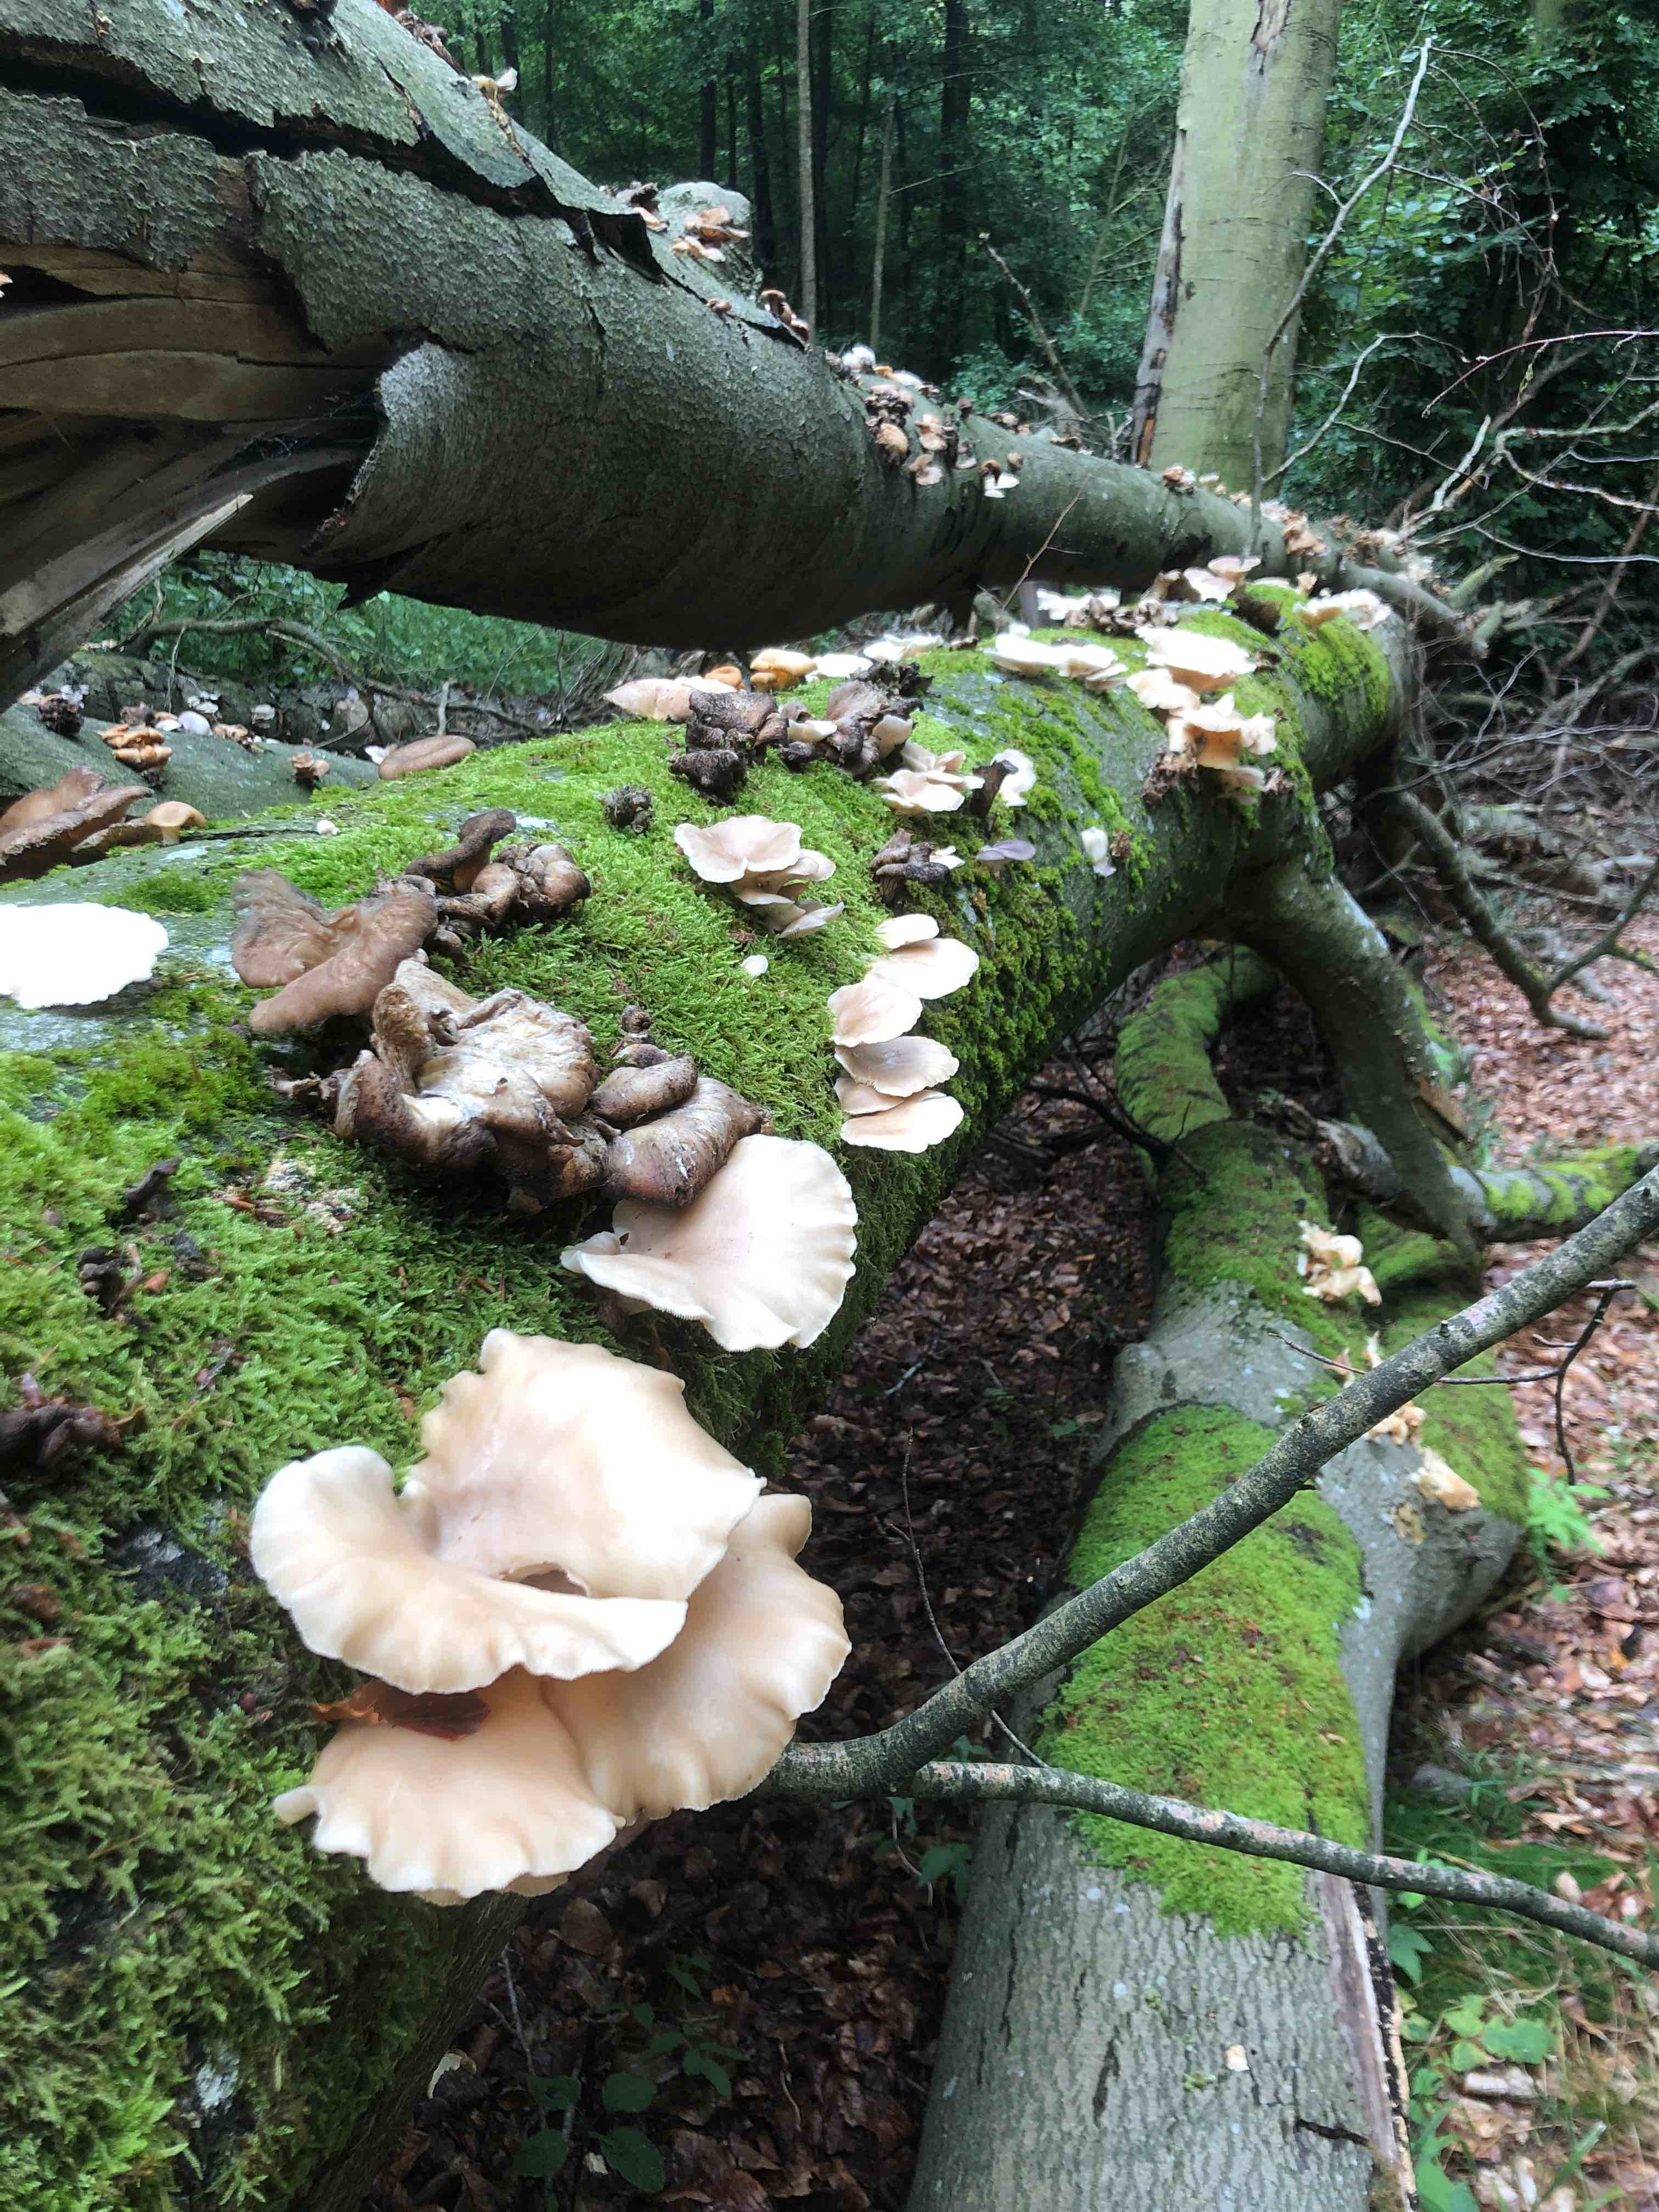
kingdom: Fungi
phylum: Basidiomycota
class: Agaricomycetes
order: Agaricales
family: Pleurotaceae
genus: Pleurotus
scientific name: Pleurotus pulmonarius
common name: sommer-østershat
